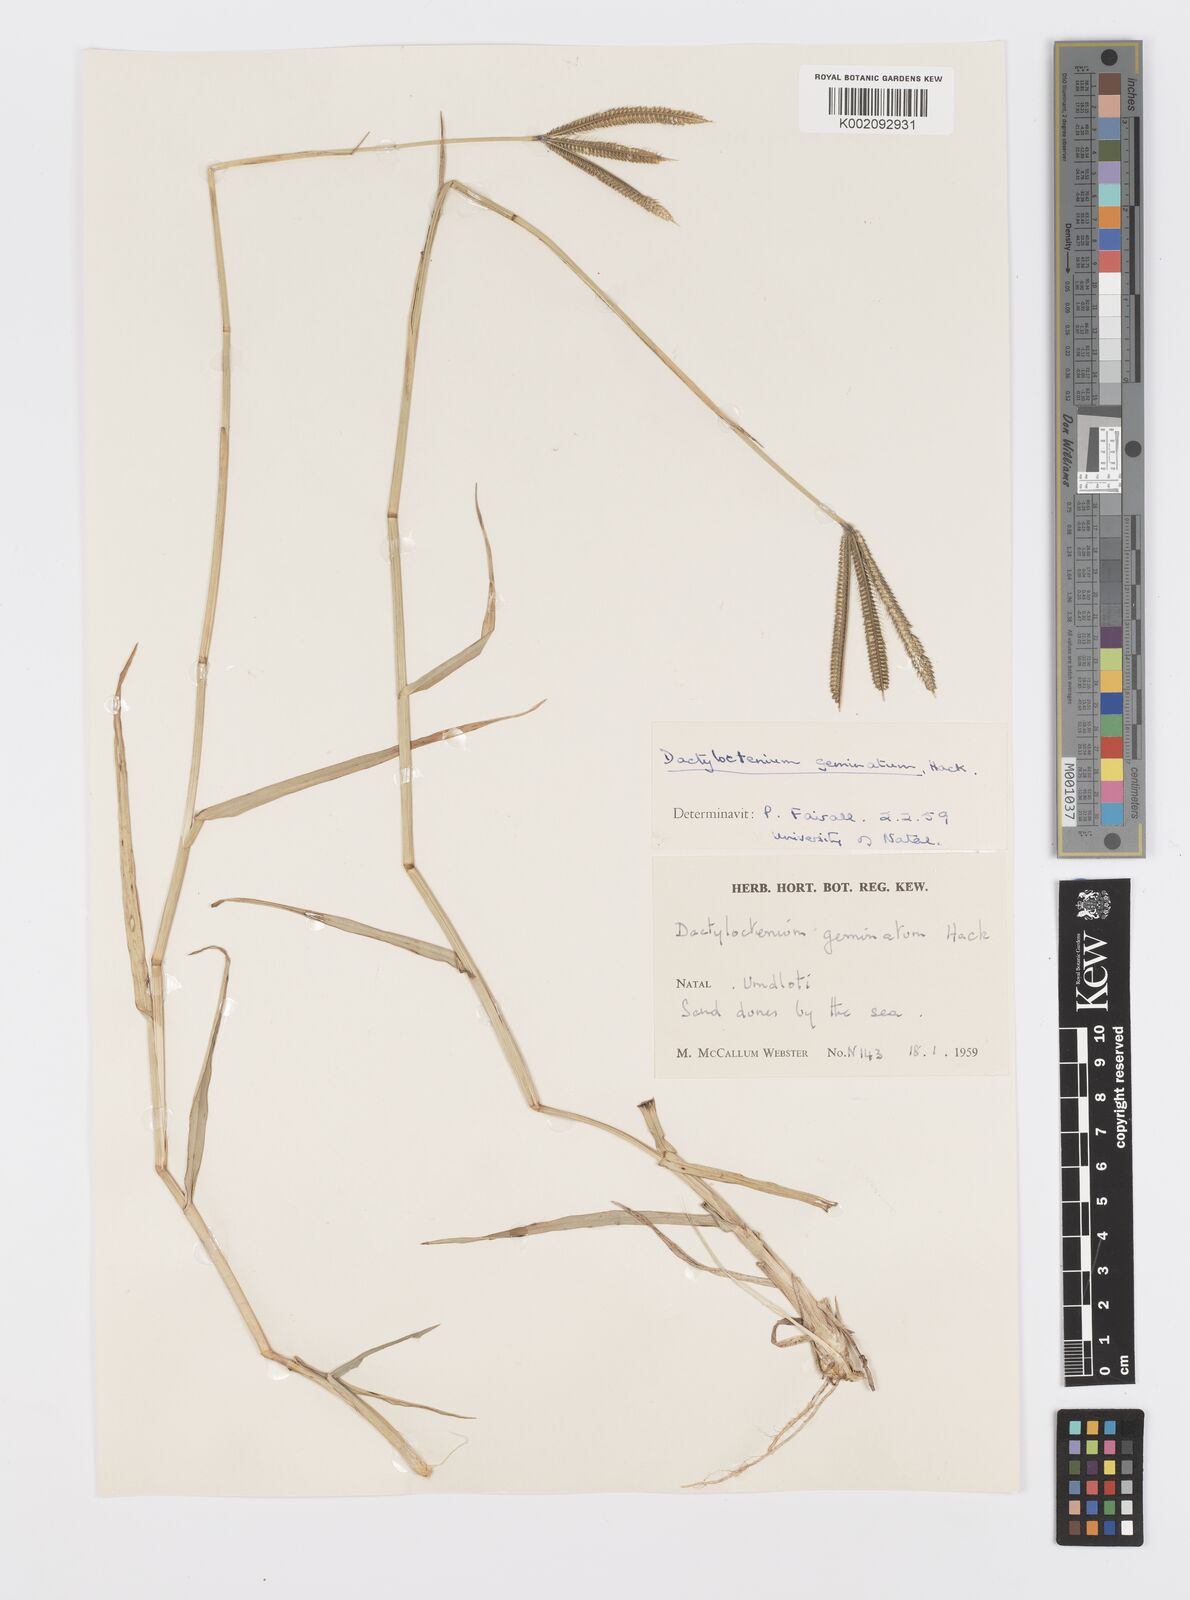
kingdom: Plantae
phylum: Tracheophyta
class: Liliopsida
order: Poales
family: Poaceae
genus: Dactyloctenium
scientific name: Dactyloctenium geminatum
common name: Crowsfoot grass
